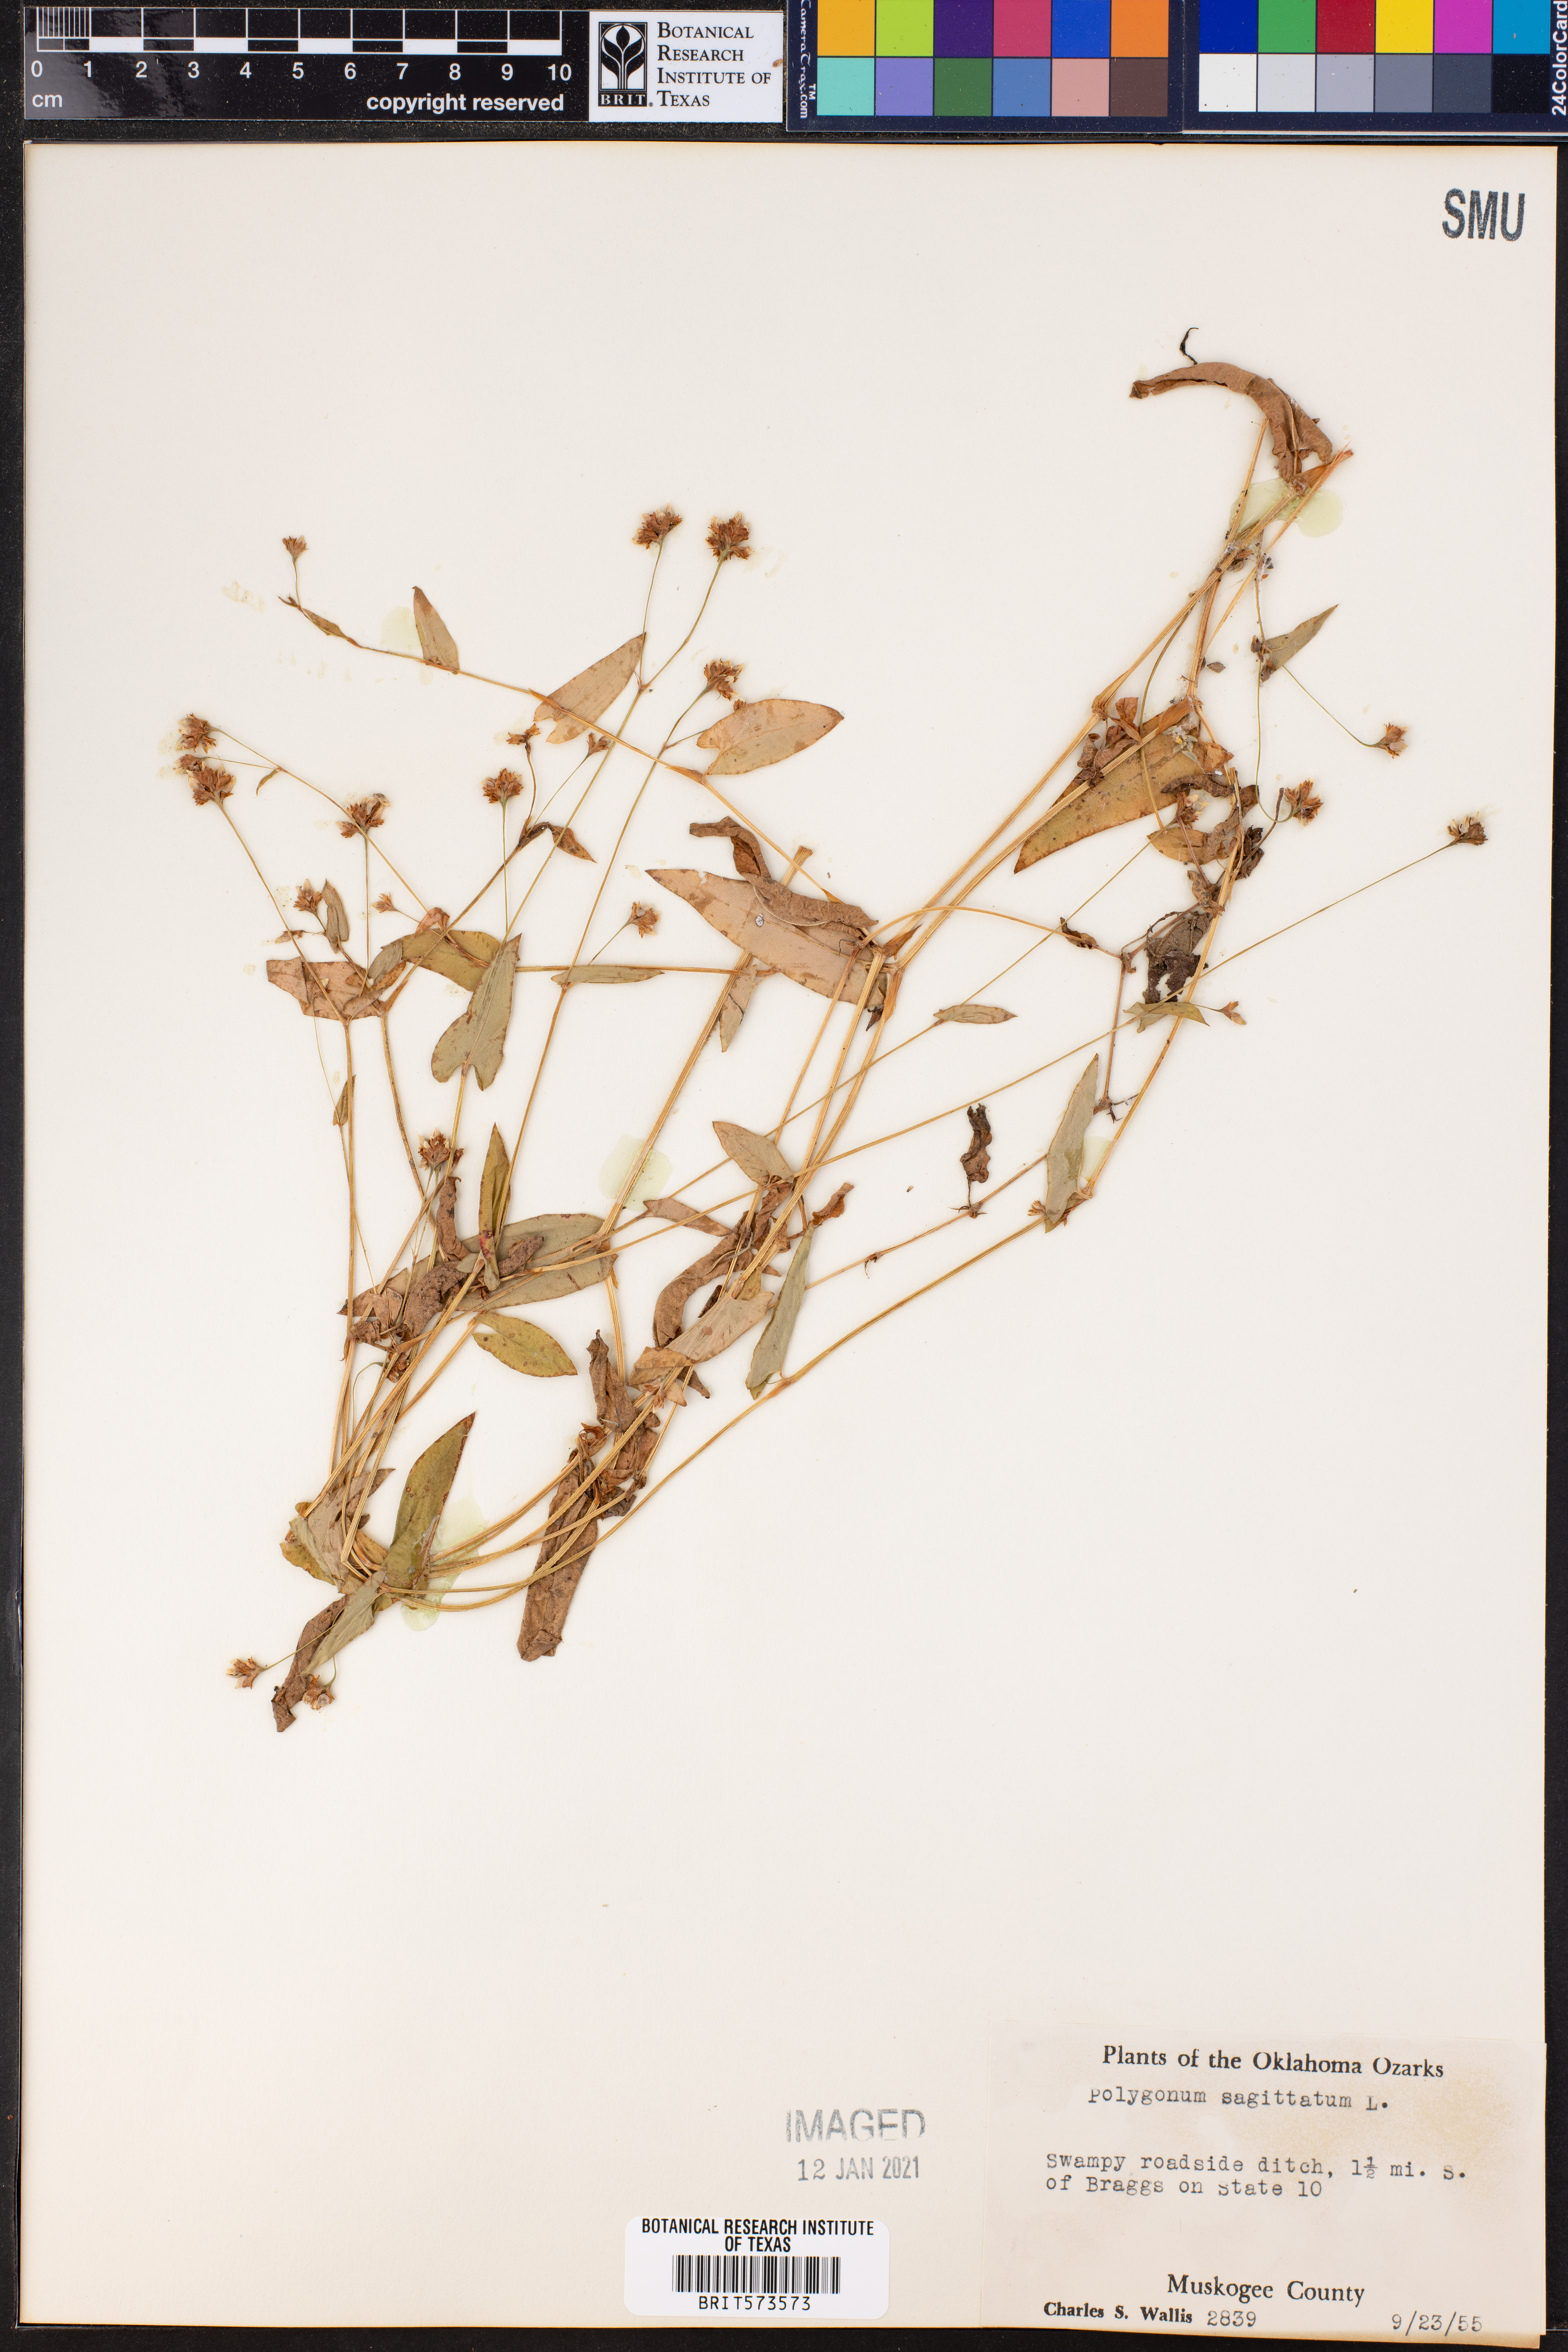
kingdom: Plantae
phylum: Tracheophyta
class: Magnoliopsida
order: Caryophyllales
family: Polygonaceae
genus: Persicaria
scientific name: Persicaria sagittata
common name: American tearthumb
